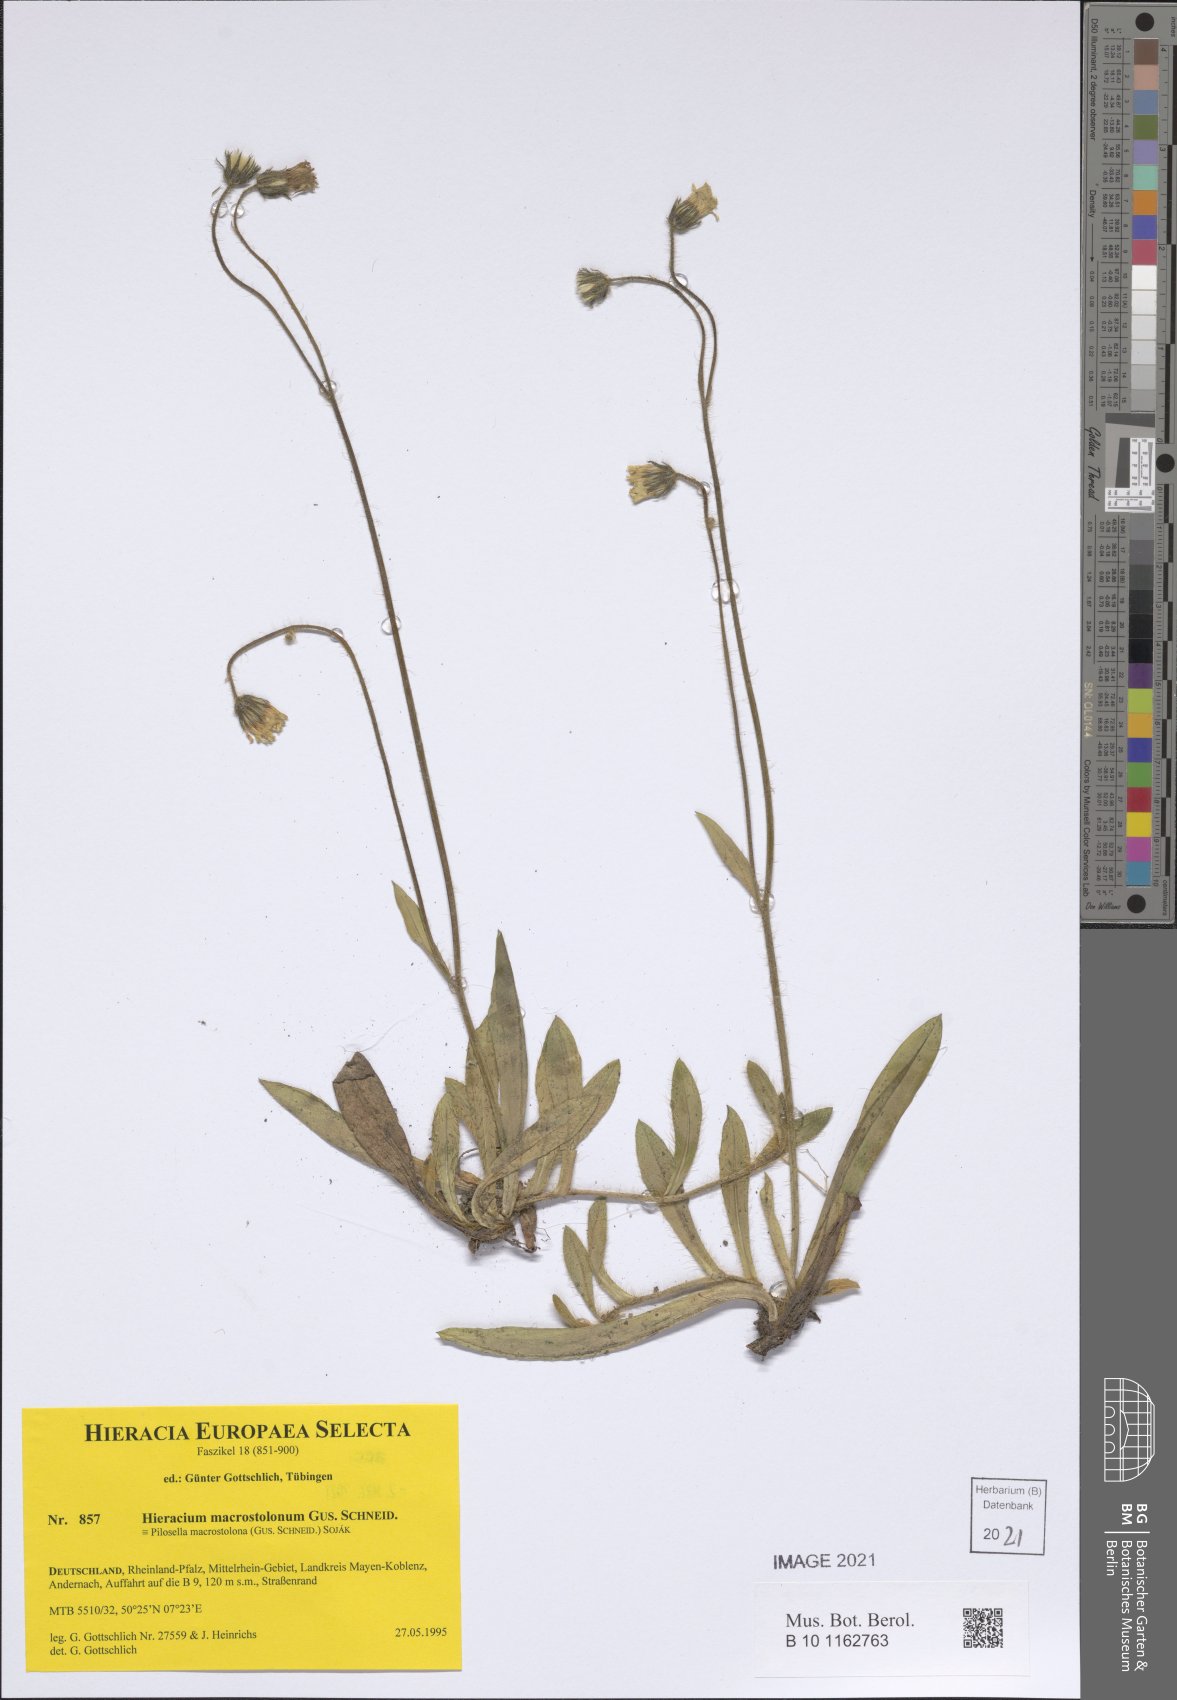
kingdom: Plantae
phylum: Tracheophyta
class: Magnoliopsida
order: Asterales
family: Asteraceae
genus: Pilosella
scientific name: Pilosella macrostolona
